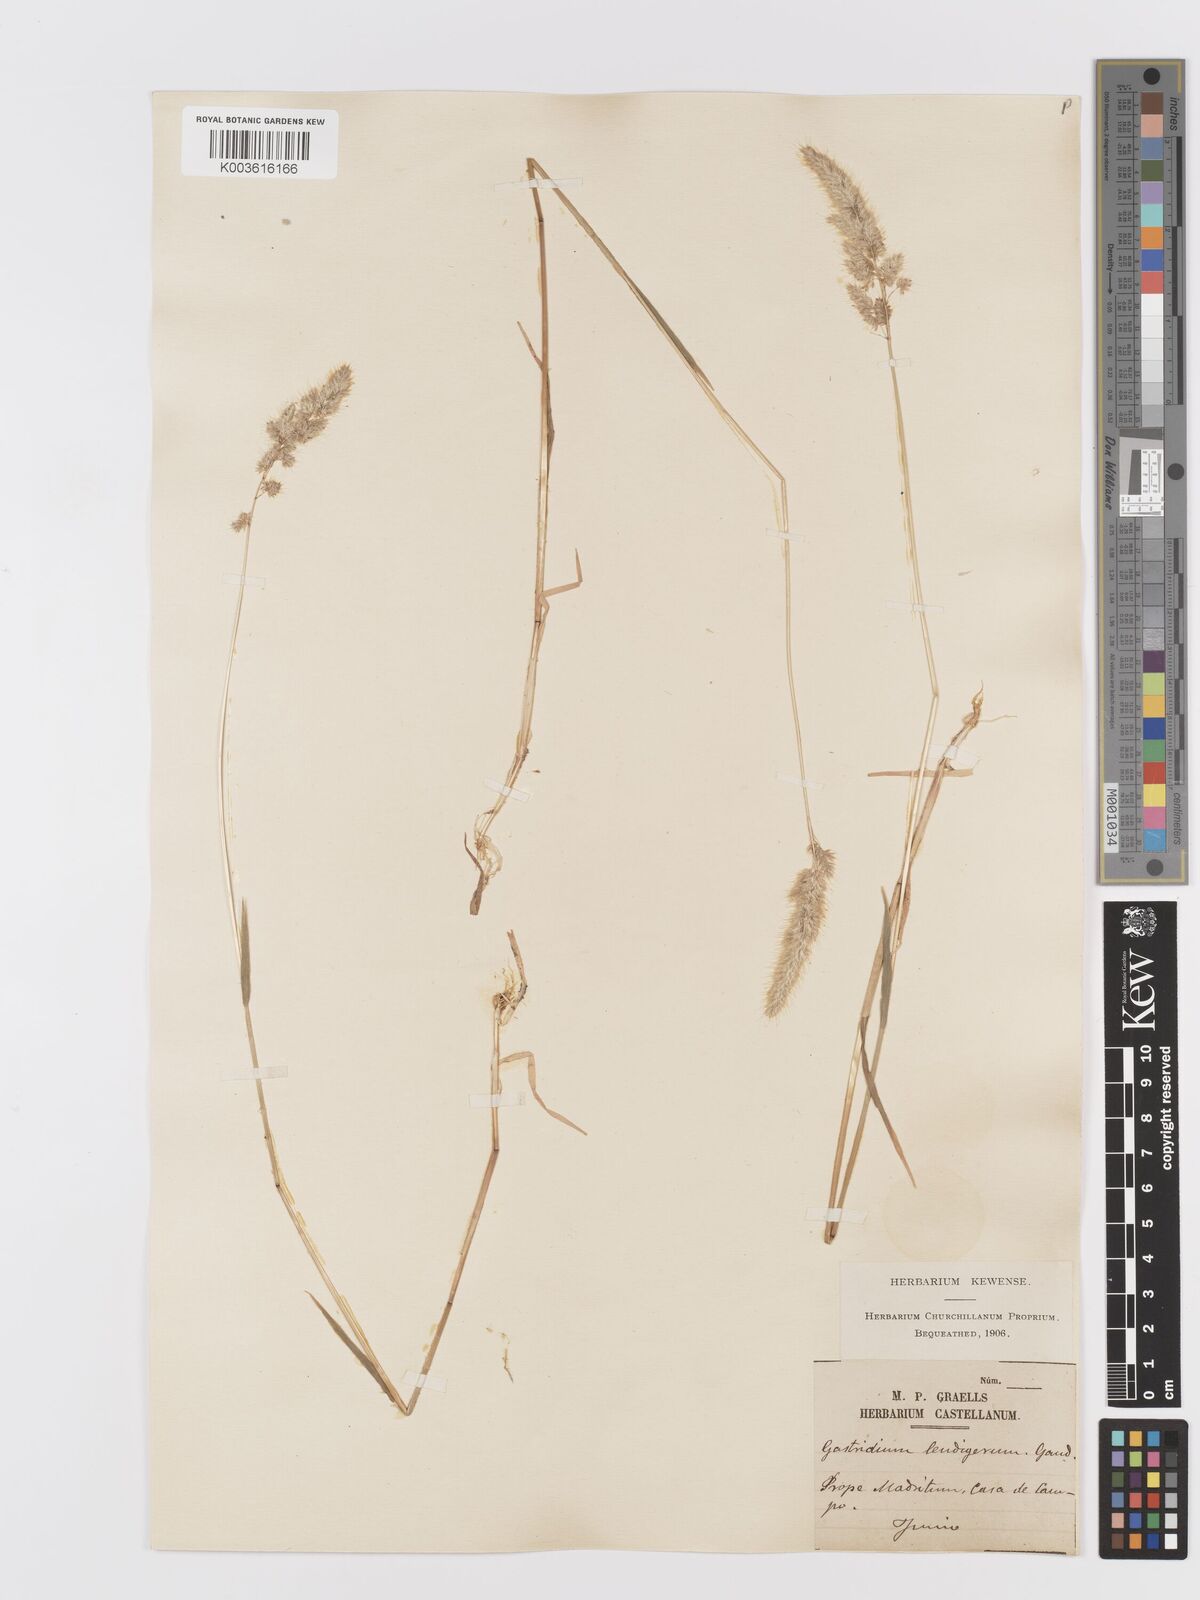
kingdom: Plantae
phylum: Tracheophyta
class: Liliopsida
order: Poales
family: Poaceae
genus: Trisetaria
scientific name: Trisetaria panicea
